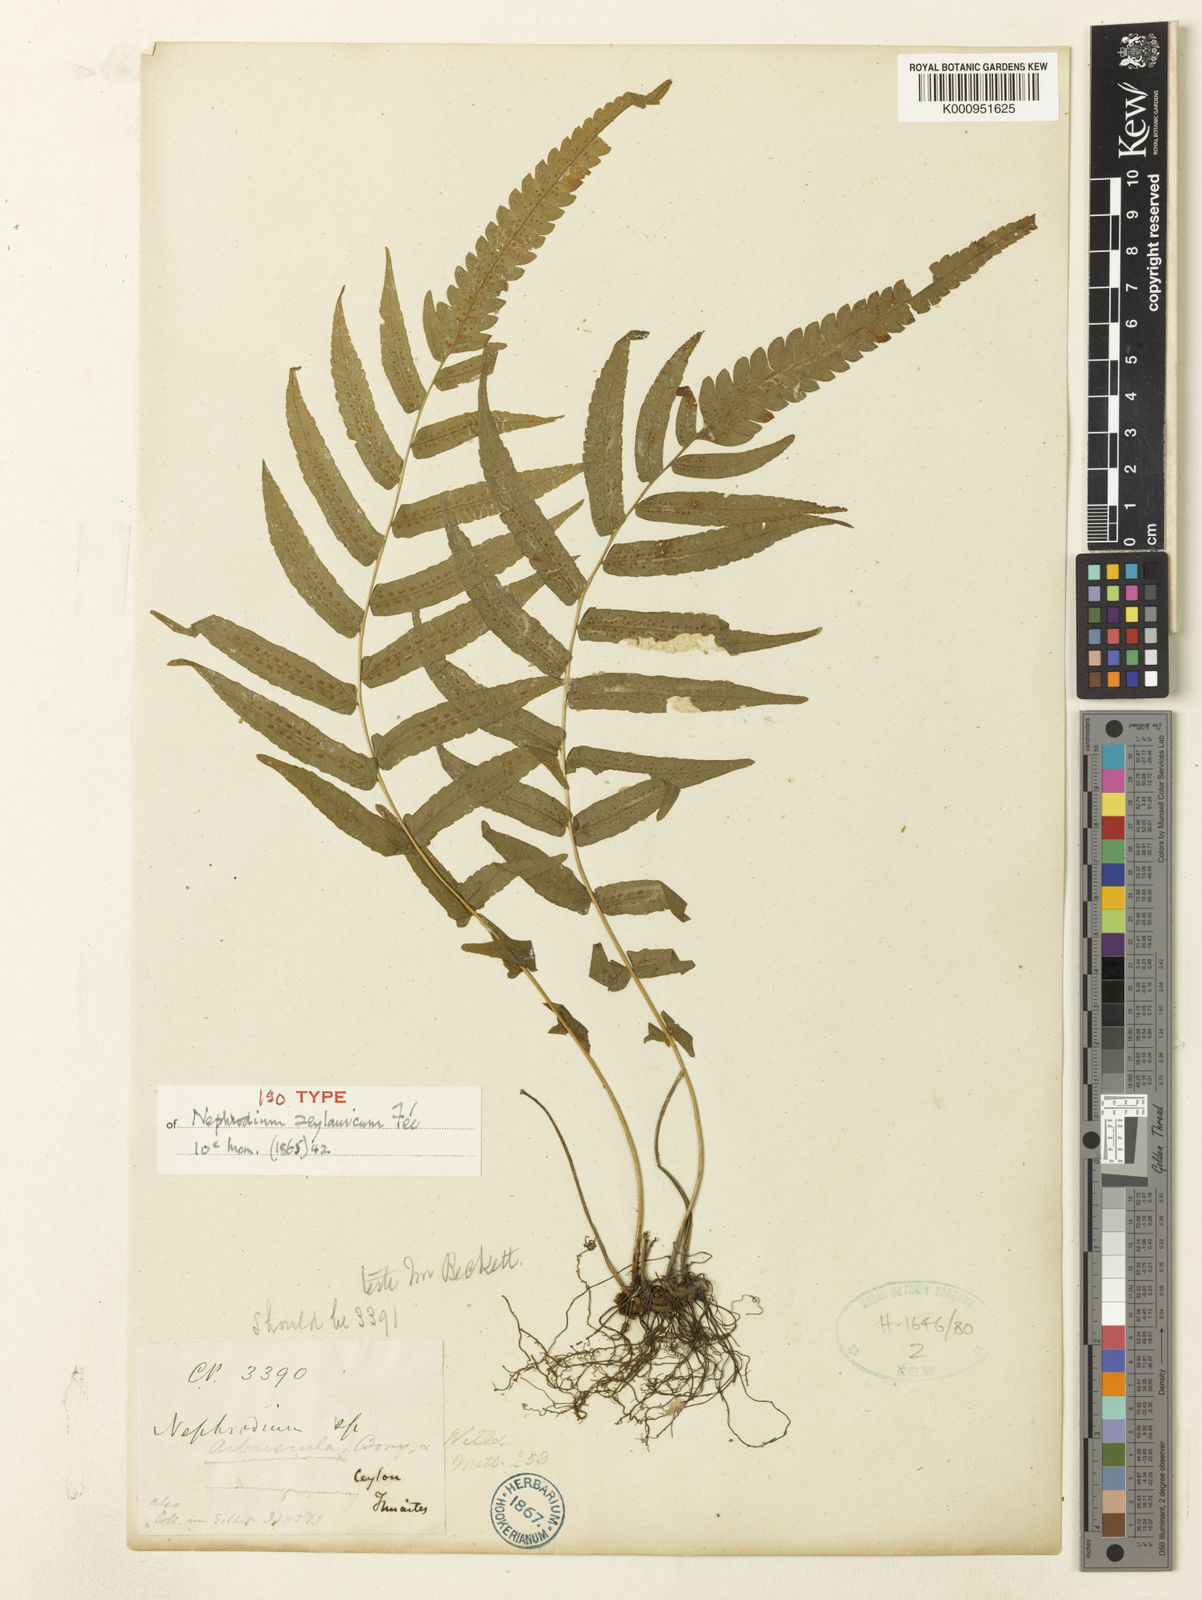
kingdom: Plantae
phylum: Tracheophyta
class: Polypodiopsida
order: Polypodiales
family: Thelypteridaceae
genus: Christella
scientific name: Christella
